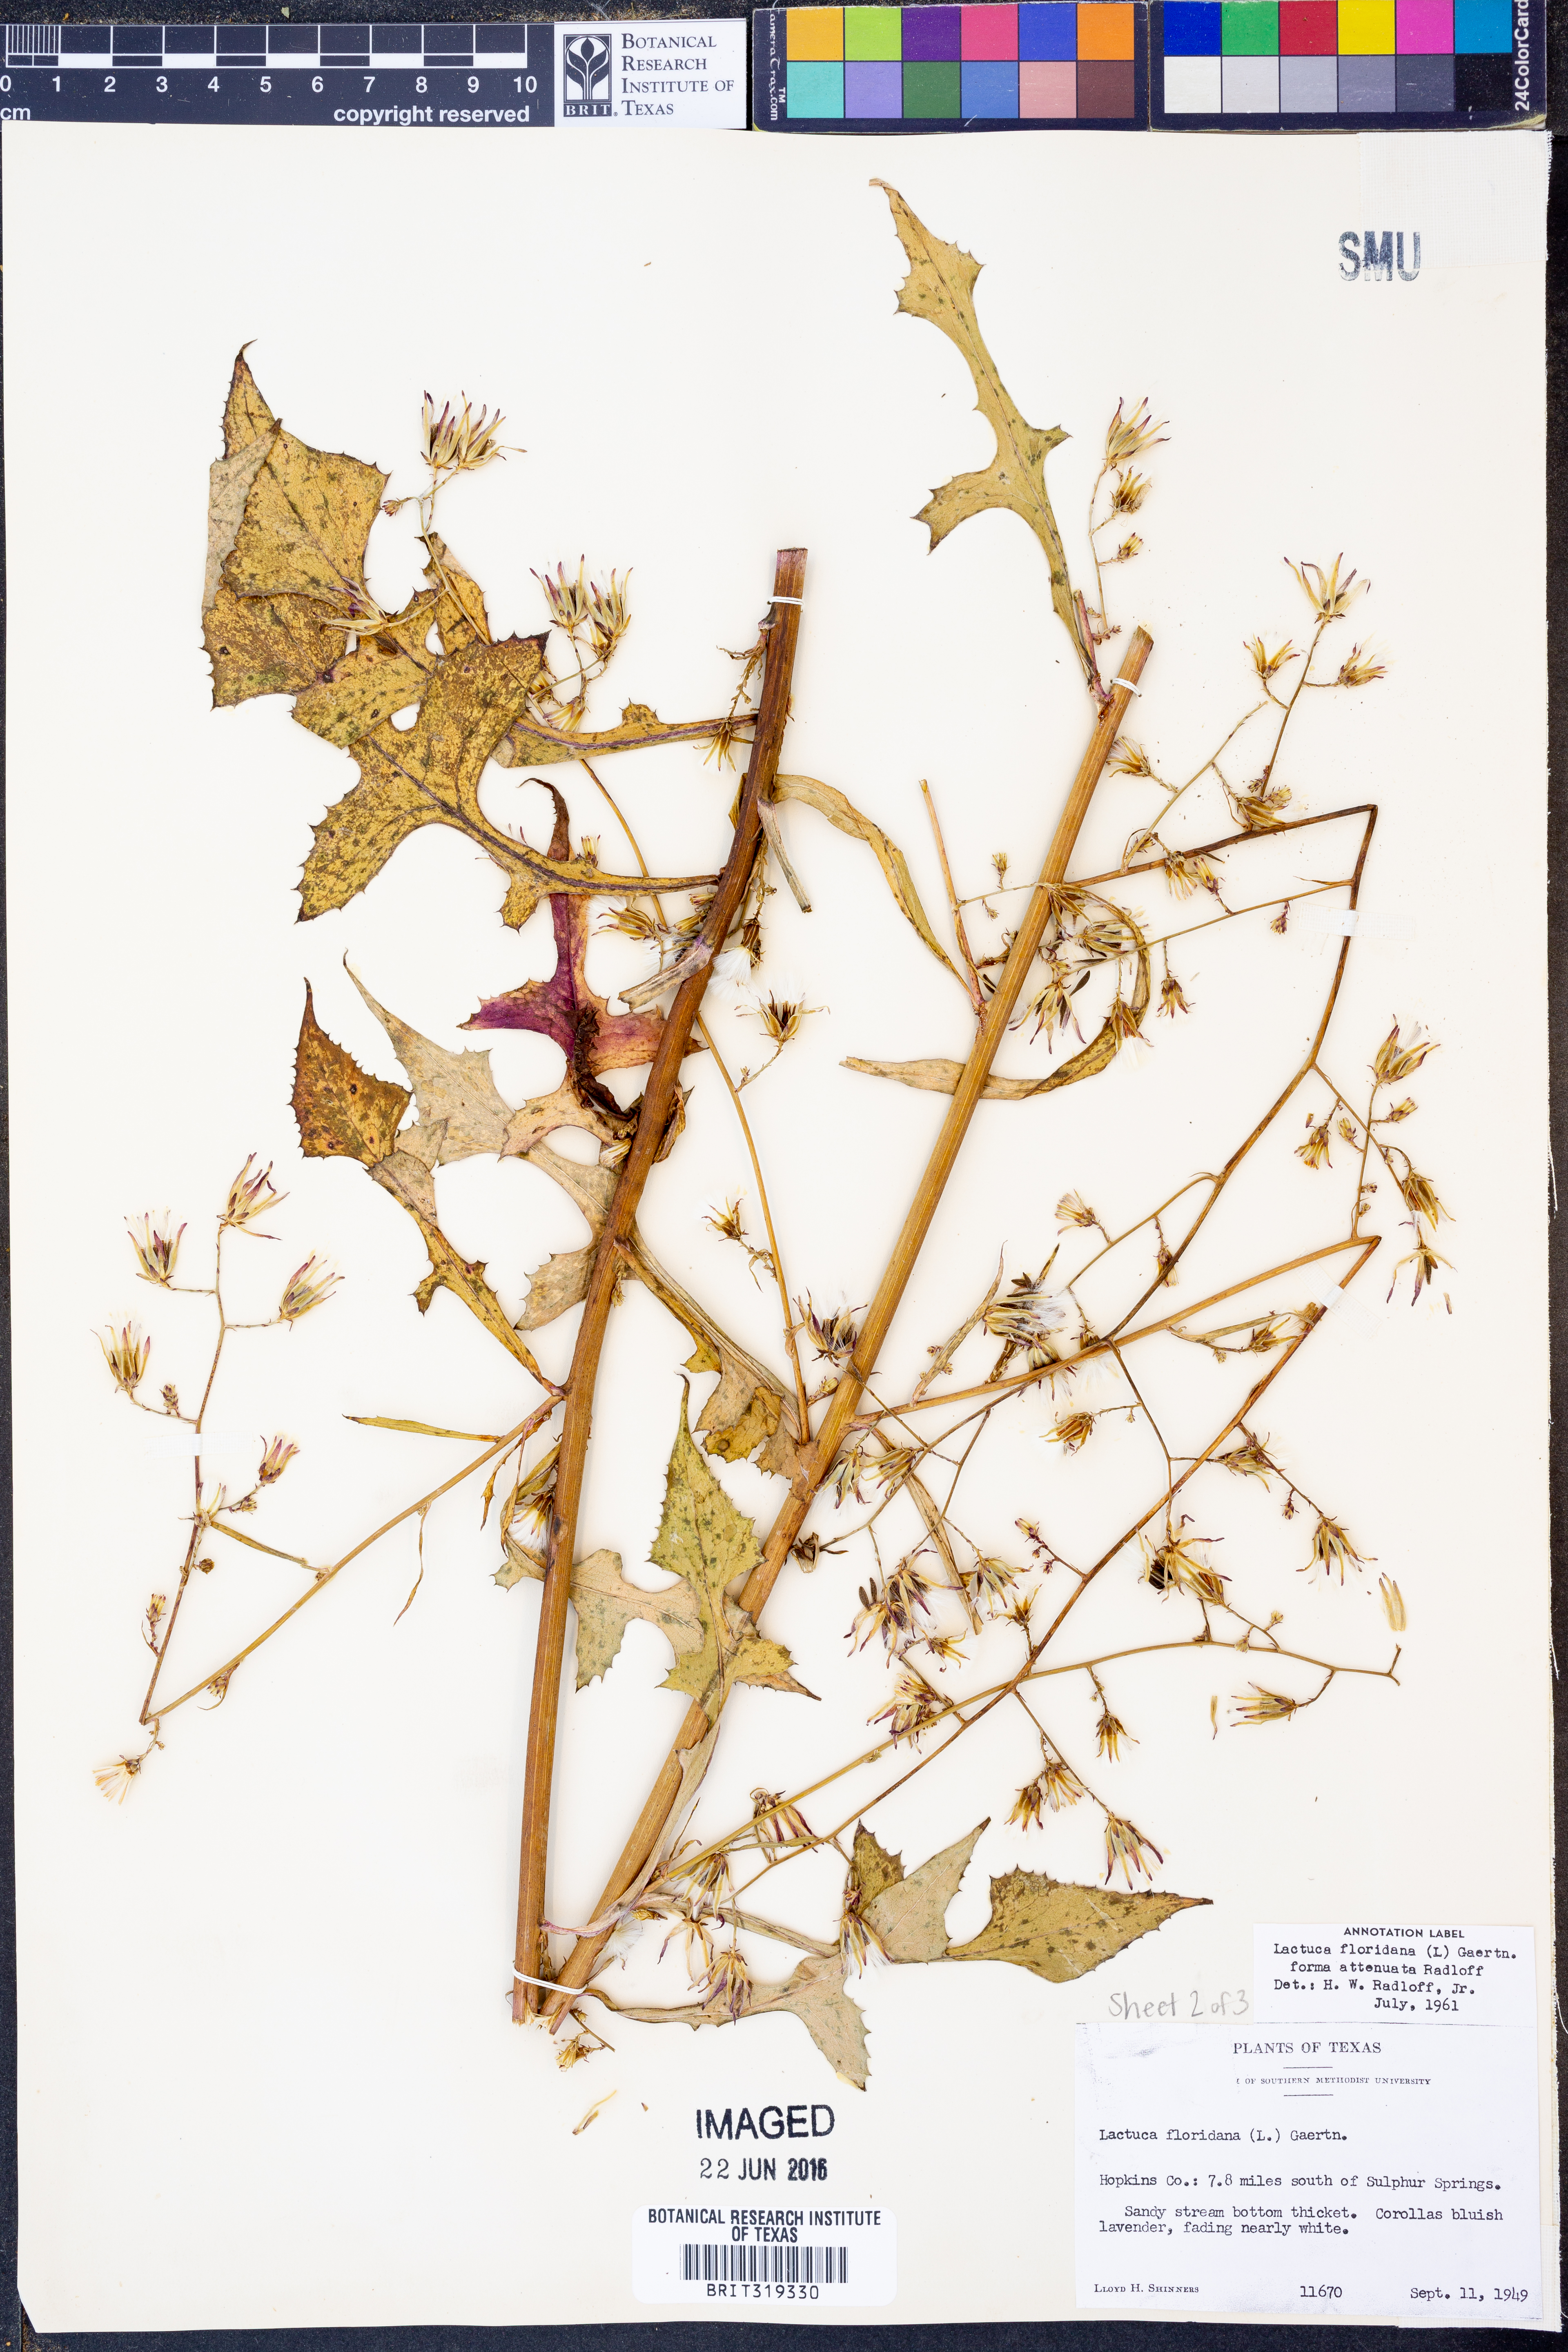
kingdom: Plantae
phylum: Tracheophyta
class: Magnoliopsida
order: Asterales
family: Asteraceae
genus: Lactuca
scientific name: Lactuca floridana
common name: Woodland lettuce
